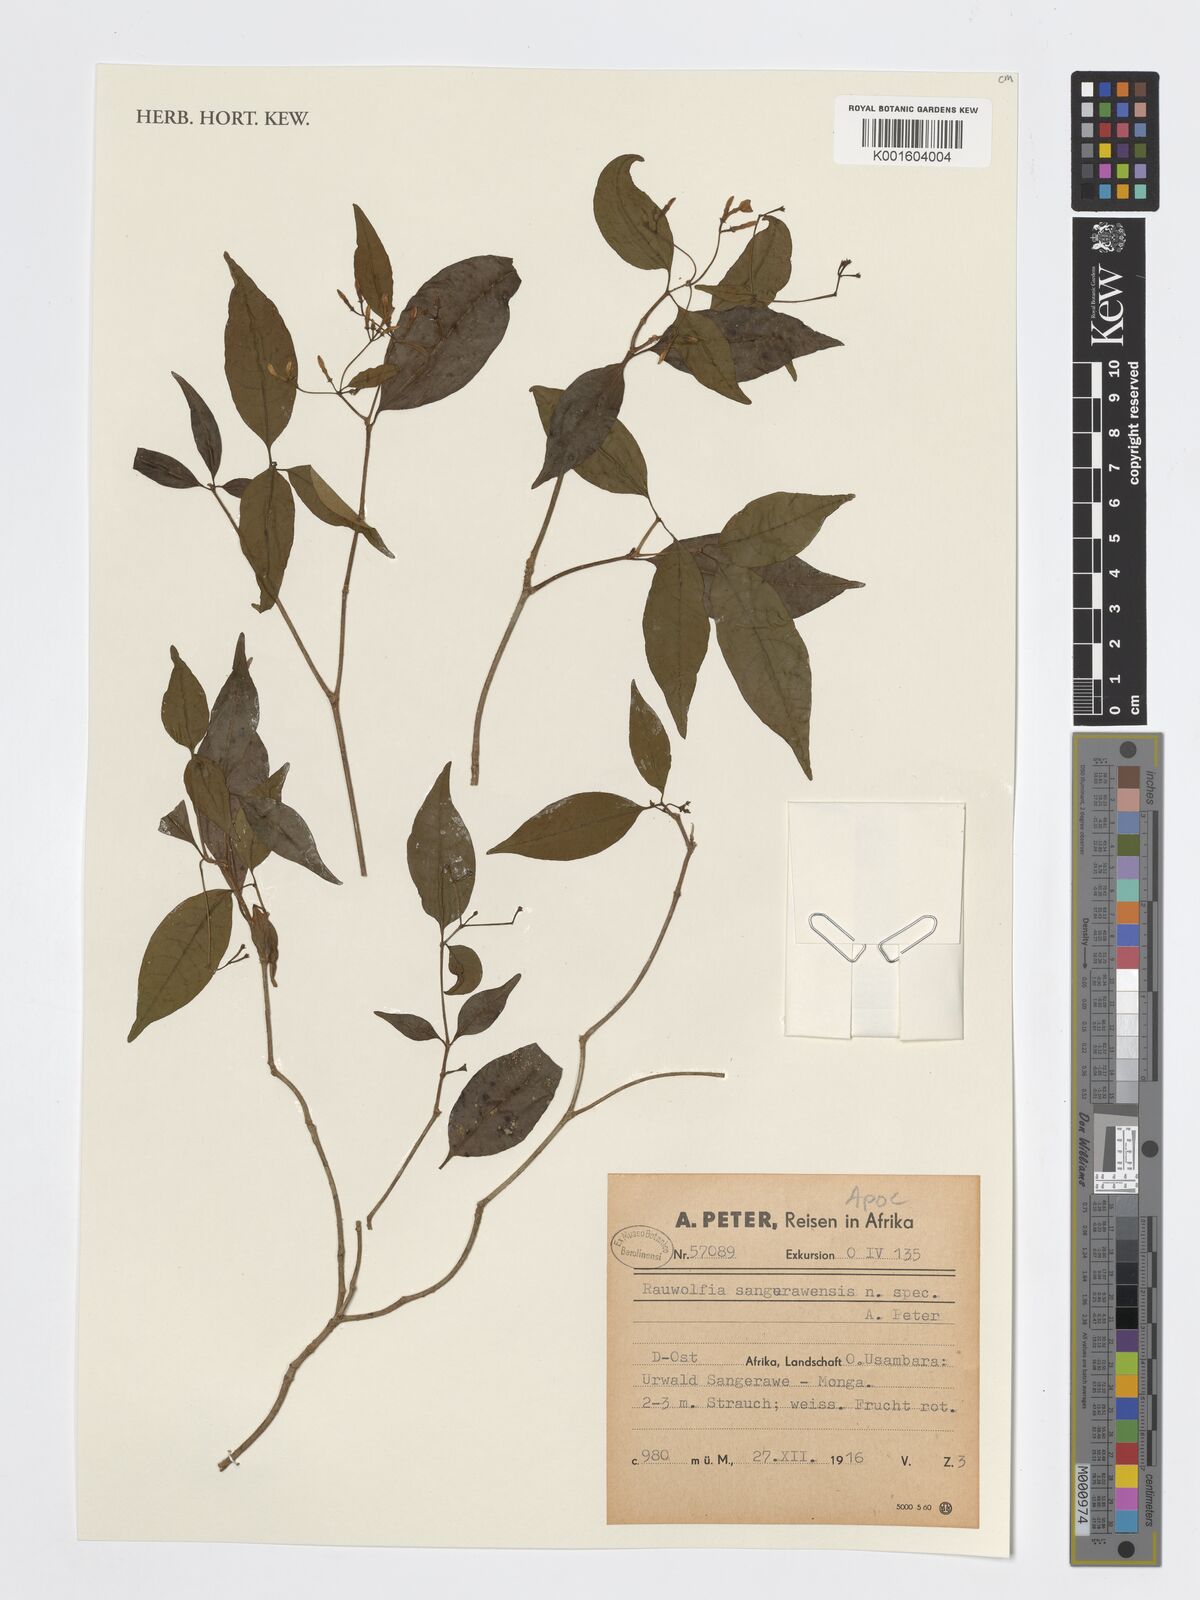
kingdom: Plantae
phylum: Tracheophyta
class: Magnoliopsida
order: Gentianales
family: Apocynaceae
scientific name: Apocynaceae
